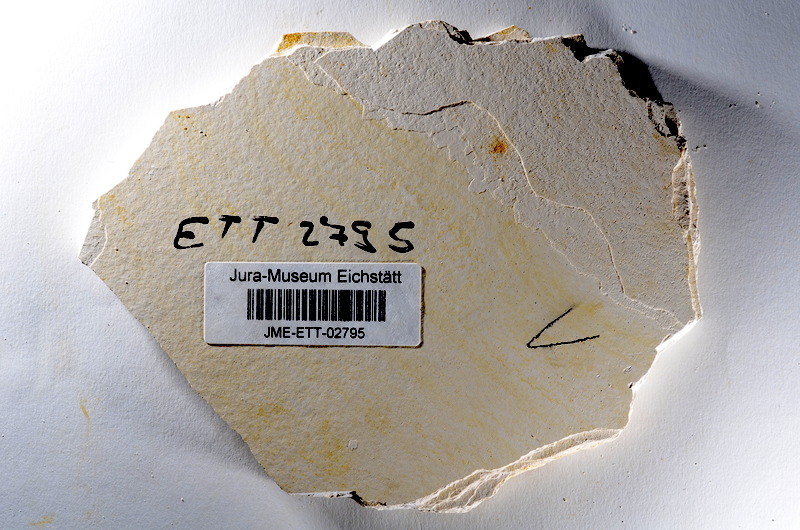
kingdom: Animalia
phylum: Chordata
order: Salmoniformes
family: Orthogonikleithridae
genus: Orthogonikleithrus
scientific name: Orthogonikleithrus hoelli
